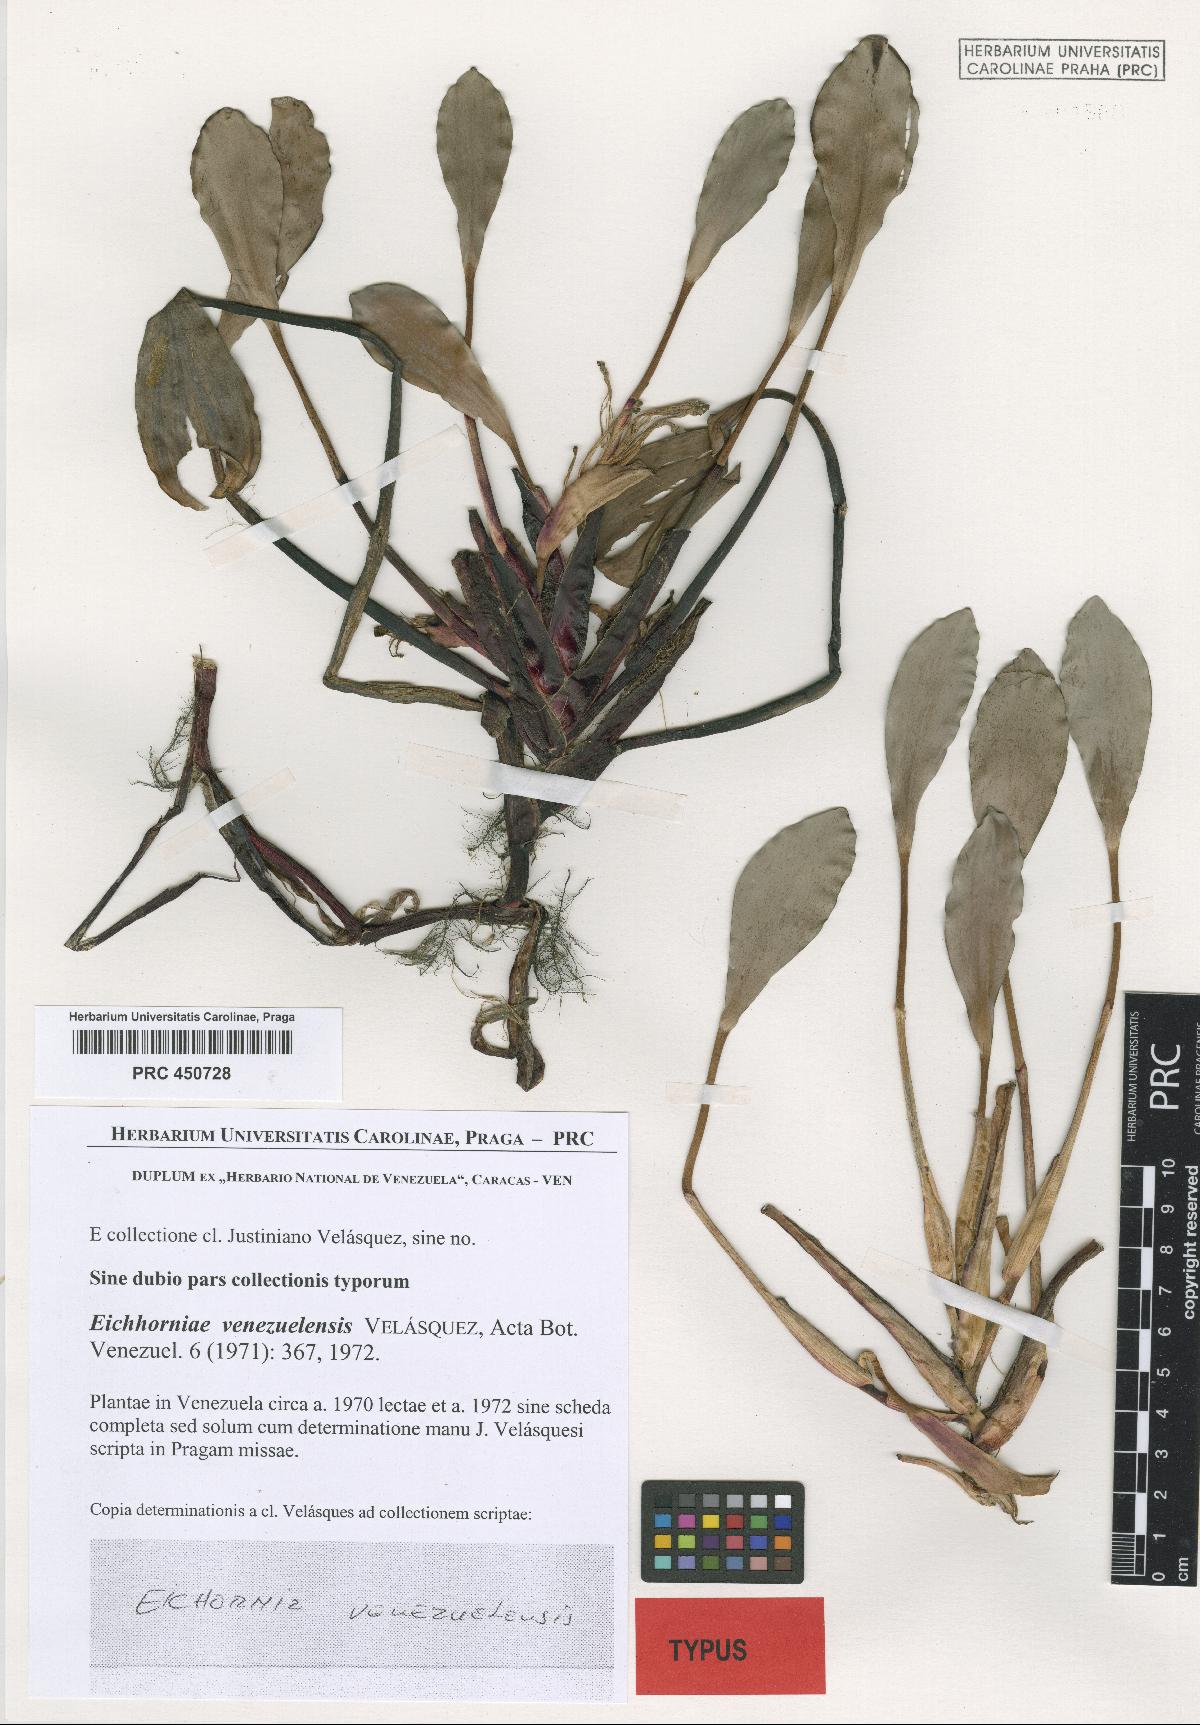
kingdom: Plantae
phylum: Tracheophyta
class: Liliopsida
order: Commelinales
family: Pontederiaceae
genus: Pontederia
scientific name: Pontederia heterosperma
